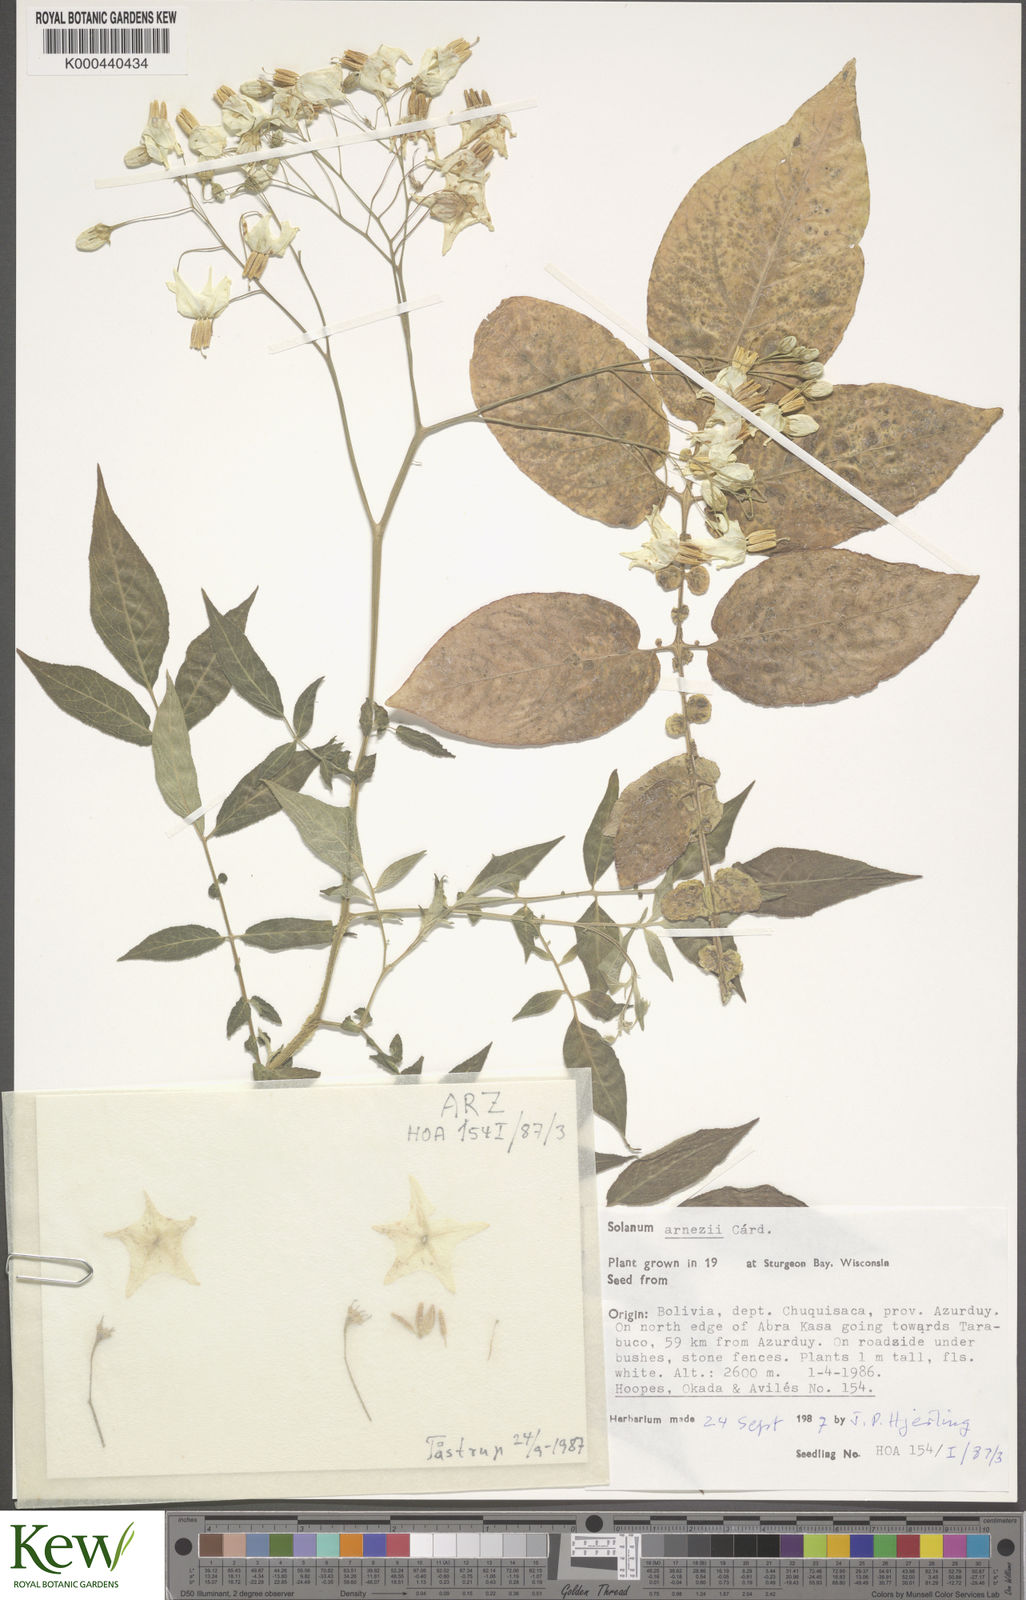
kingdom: Plantae
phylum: Tracheophyta
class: Magnoliopsida
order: Solanales
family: Solanaceae
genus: Solanum
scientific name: Solanum chacoense
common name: Chaco potato
